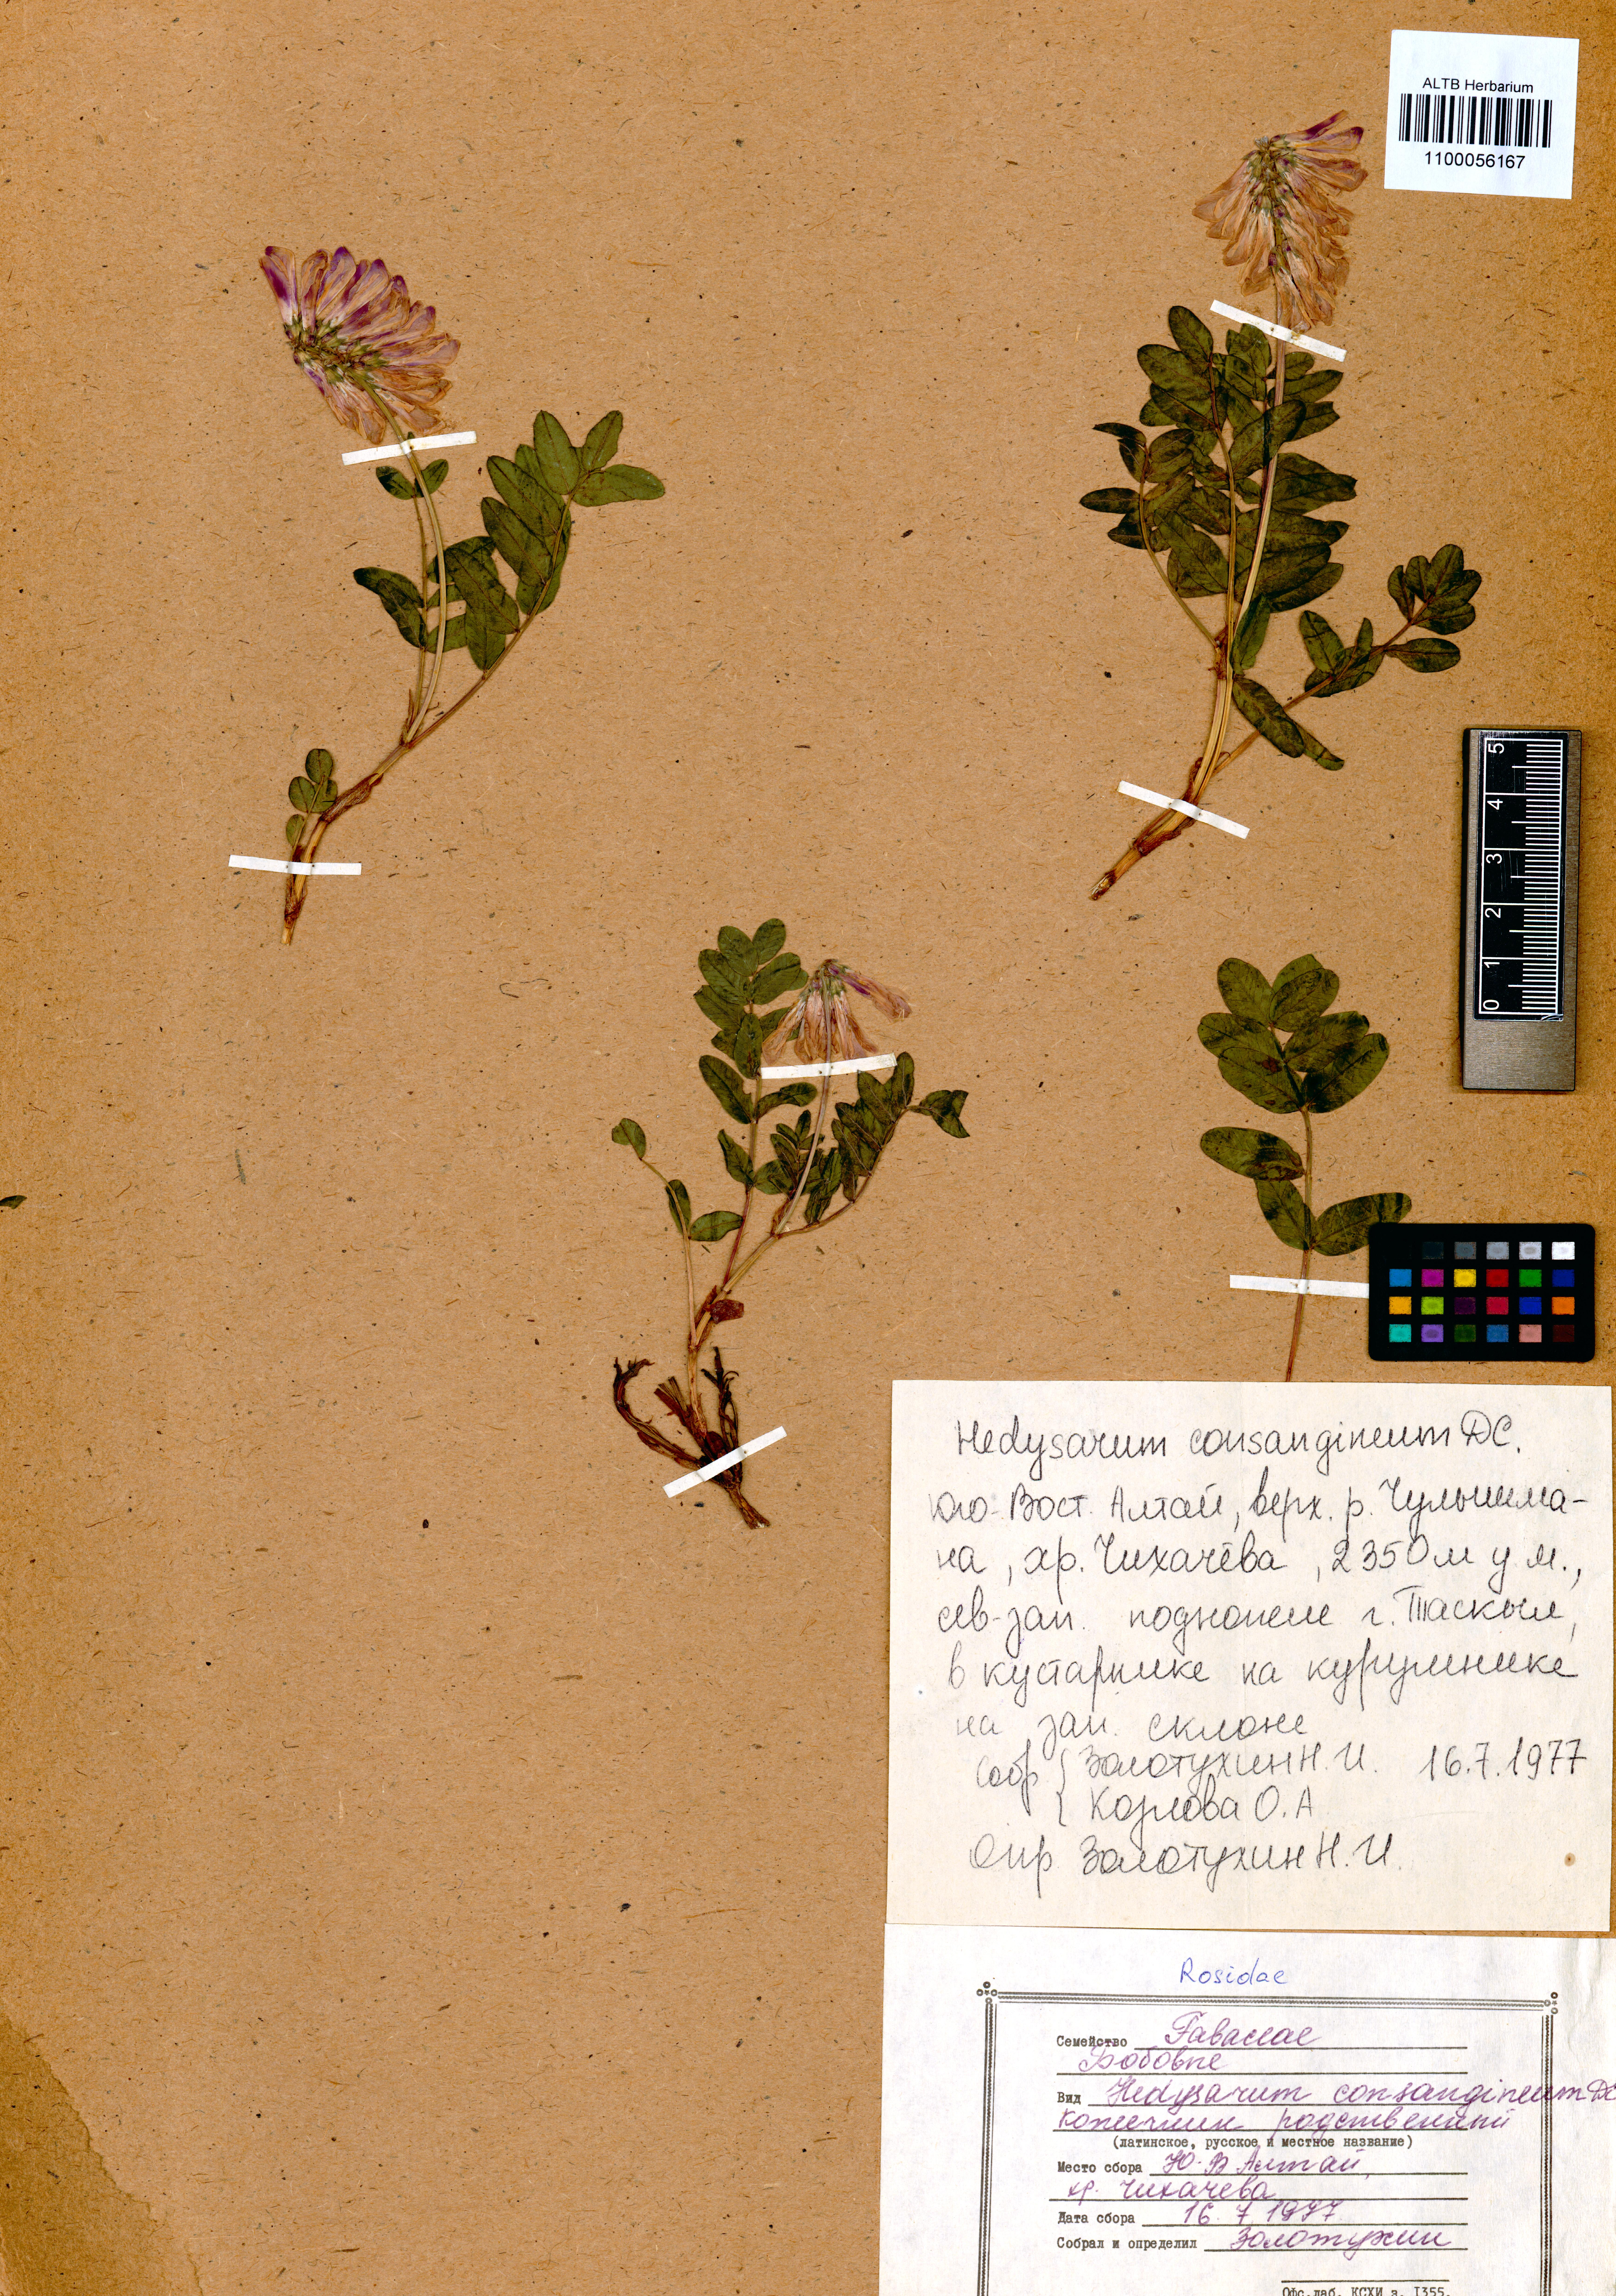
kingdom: Plantae
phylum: Tracheophyta
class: Magnoliopsida
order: Fabales
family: Fabaceae
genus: Hedysarum
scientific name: Hedysarum consanguineum
